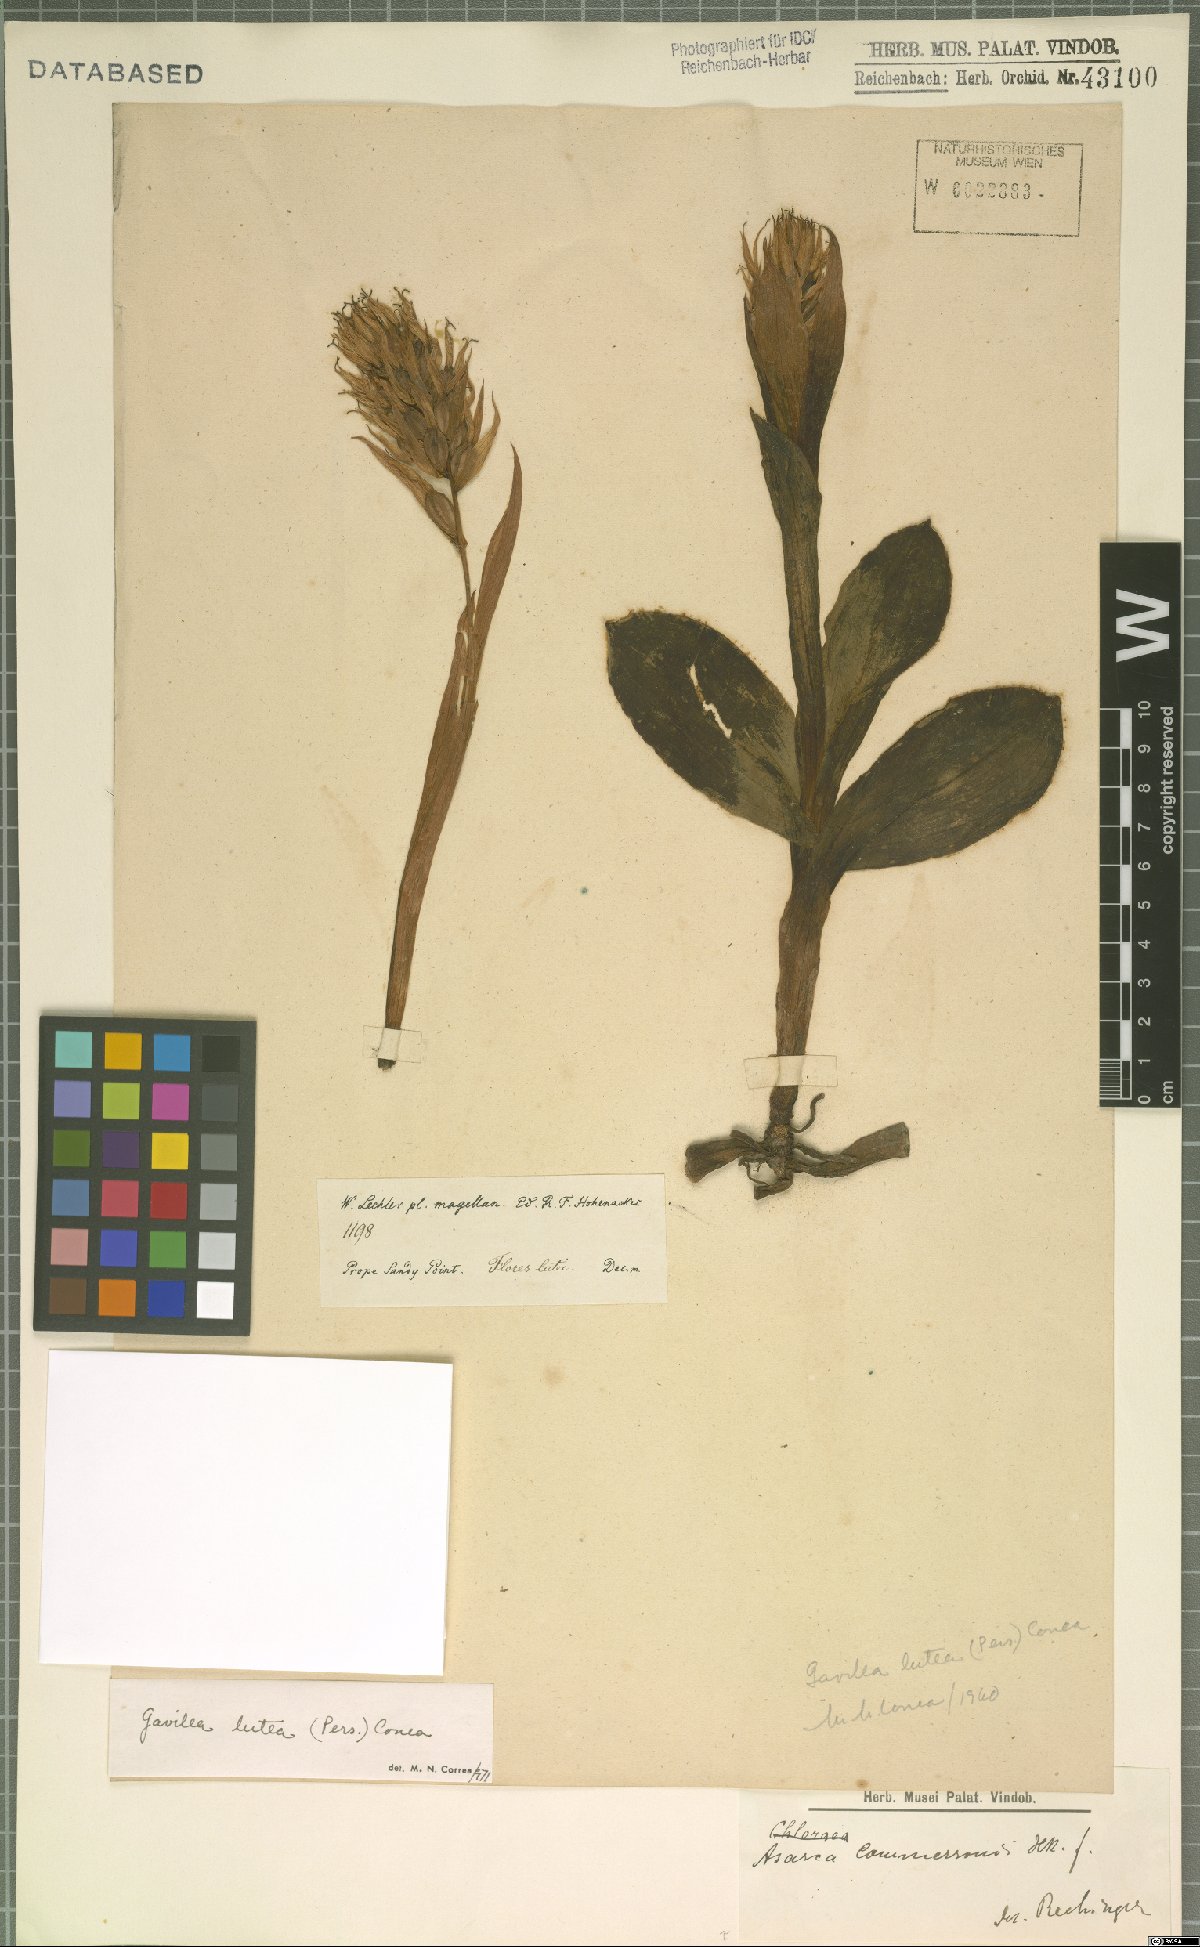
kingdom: Plantae
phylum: Tracheophyta
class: Liliopsida
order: Asparagales
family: Orchidaceae
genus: Gavilea
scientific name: Gavilea lutea
